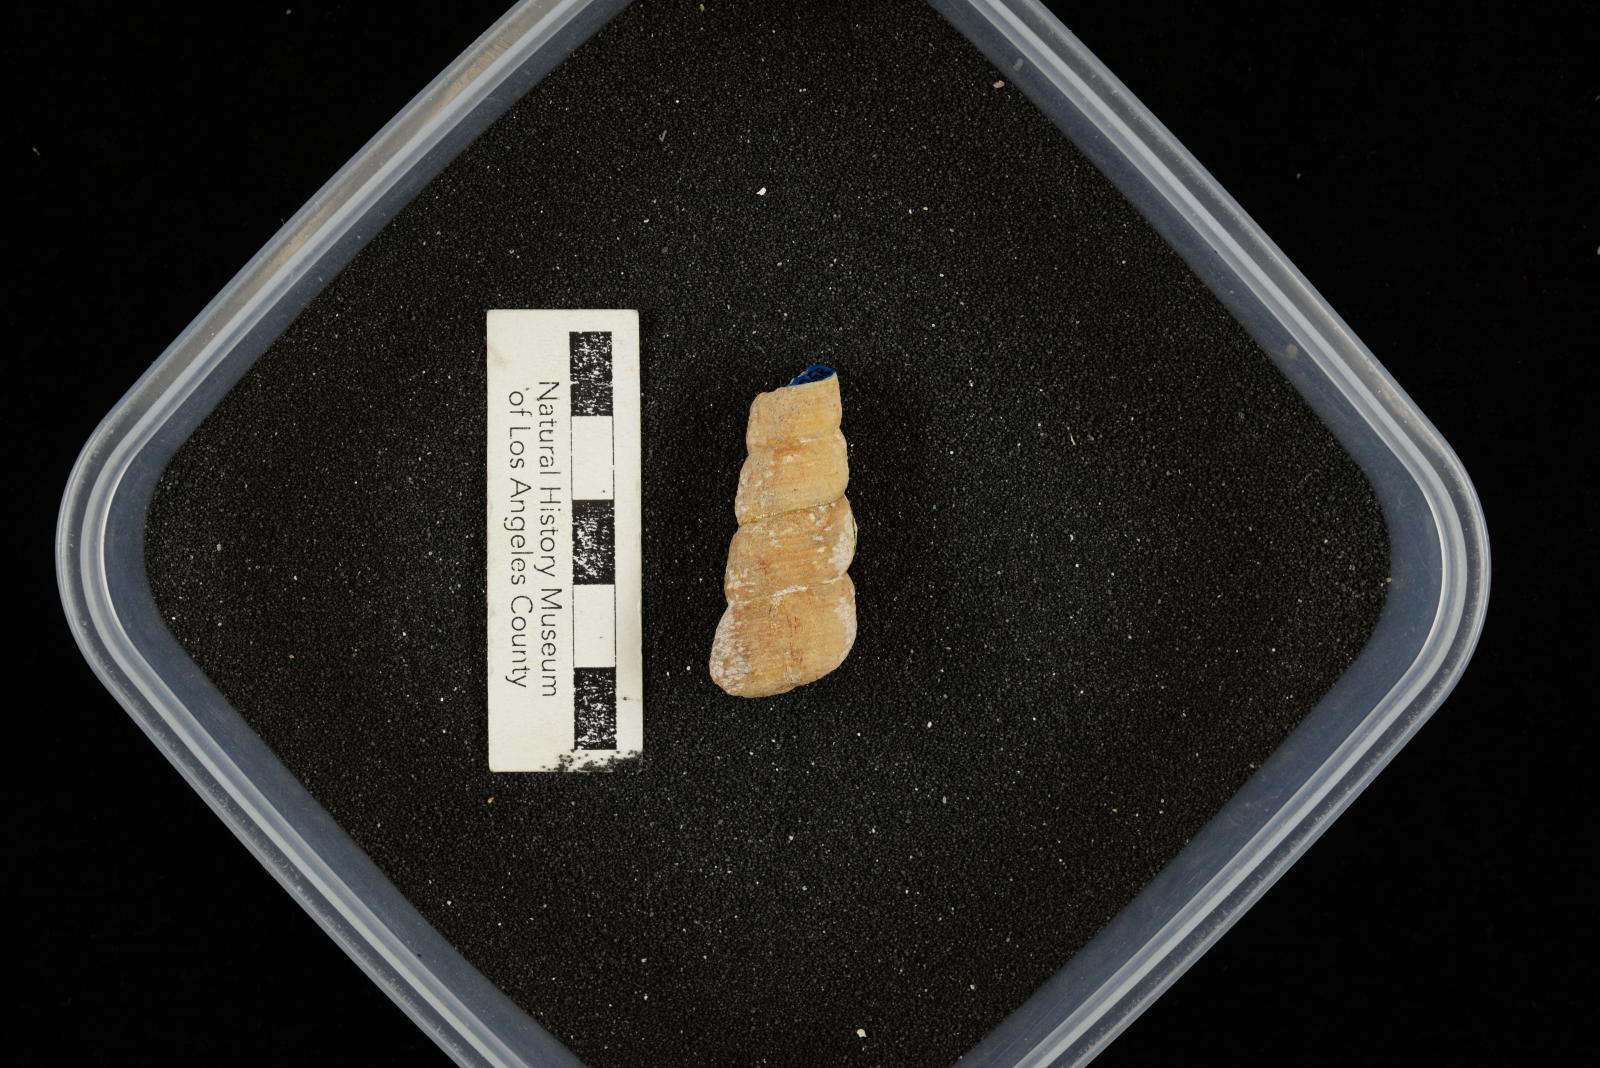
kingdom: Animalia
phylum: Mollusca
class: Gastropoda
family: Turritellidae
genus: Turritella
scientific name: Turritella chaneyi
